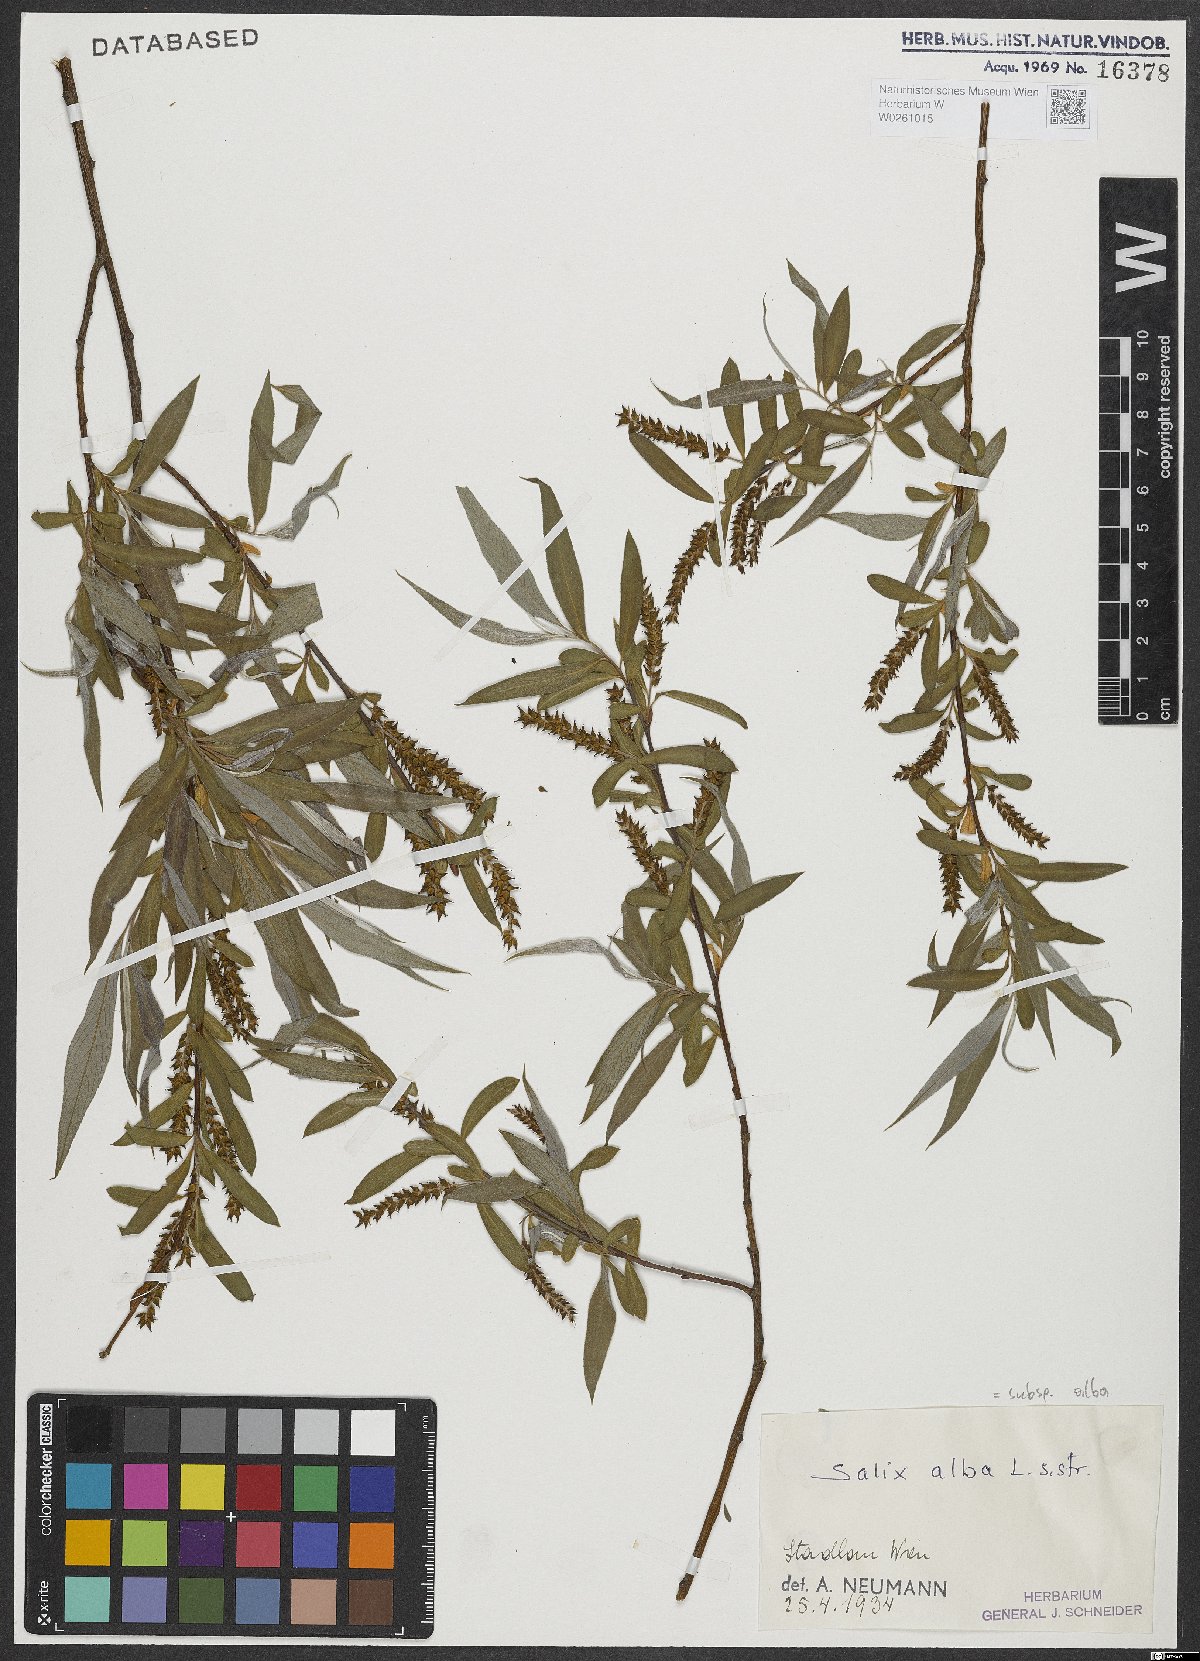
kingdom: Plantae
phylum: Tracheophyta
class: Magnoliopsida
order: Malpighiales
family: Salicaceae
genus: Salix
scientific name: Salix alba
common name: White willow
